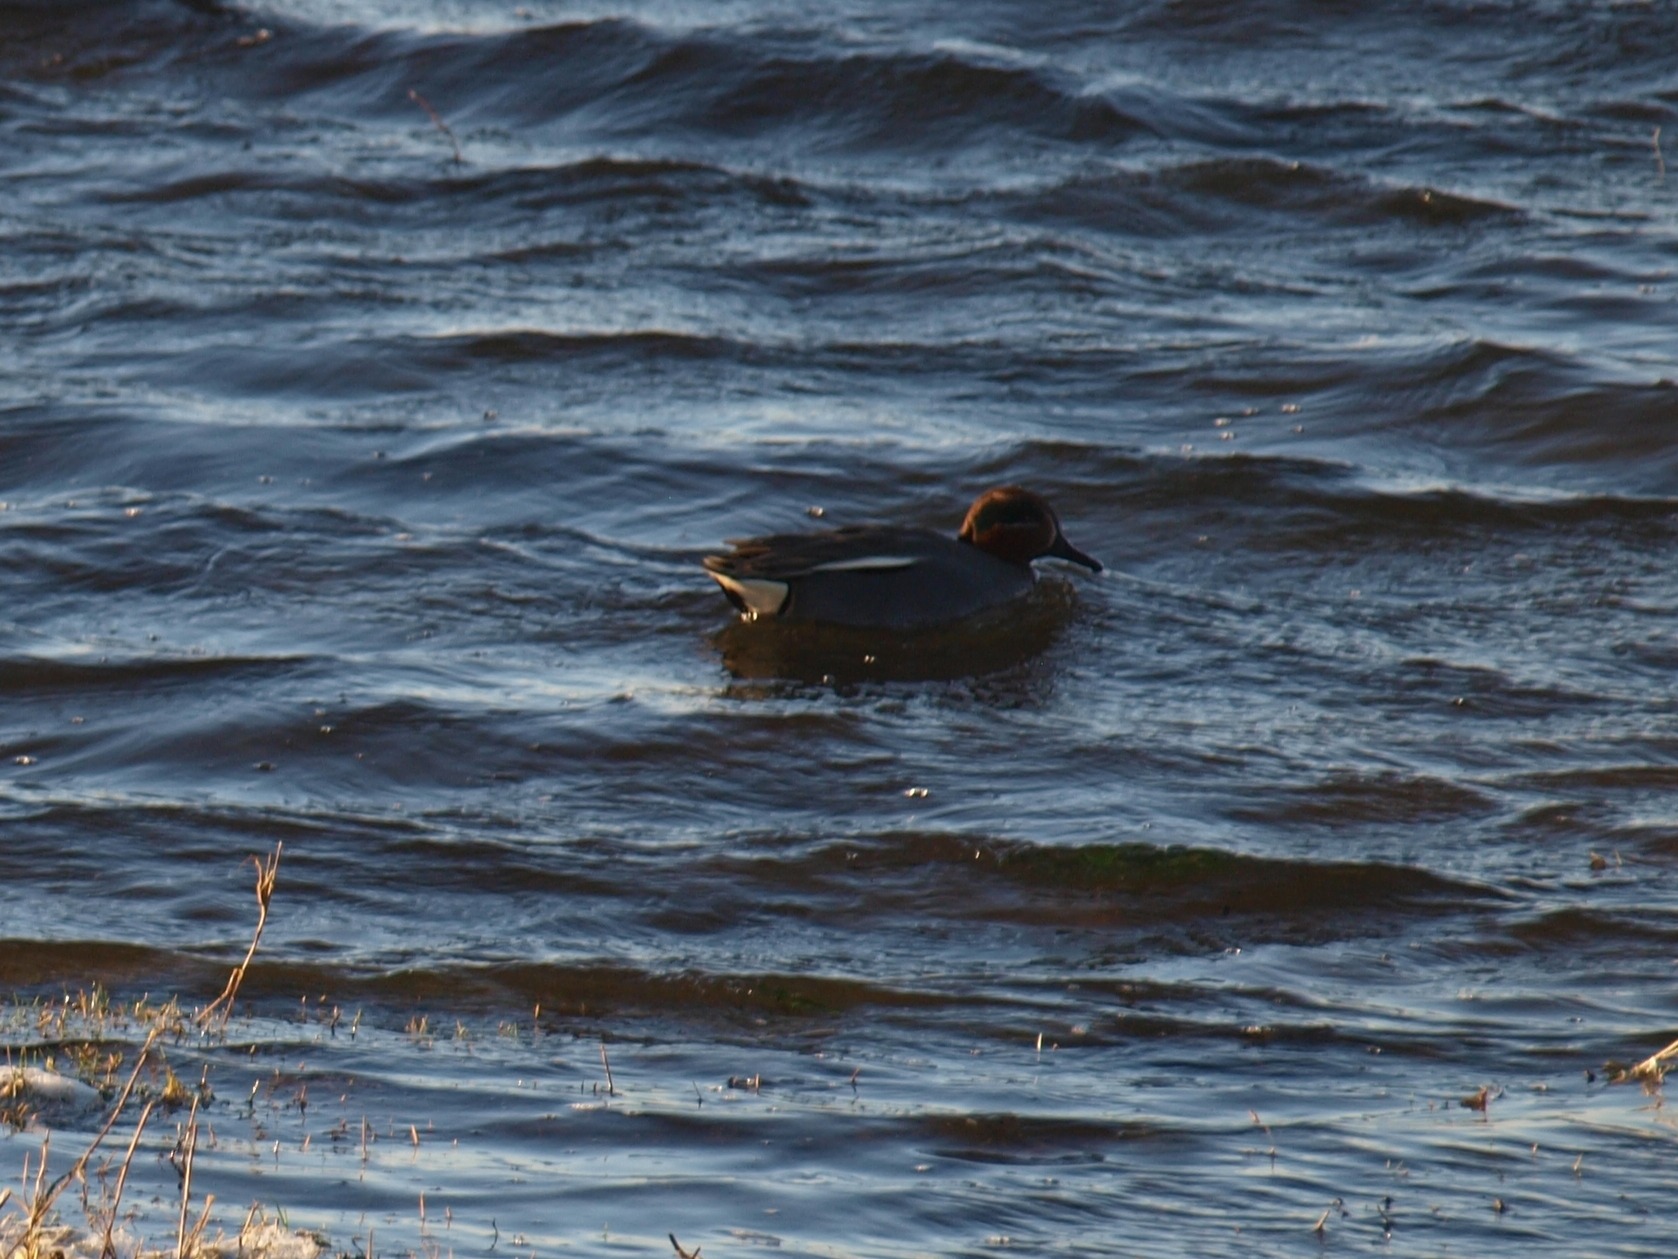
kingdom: Animalia
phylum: Chordata
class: Aves
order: Anseriformes
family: Anatidae
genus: Anas
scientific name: Anas crecca
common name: Krikand
